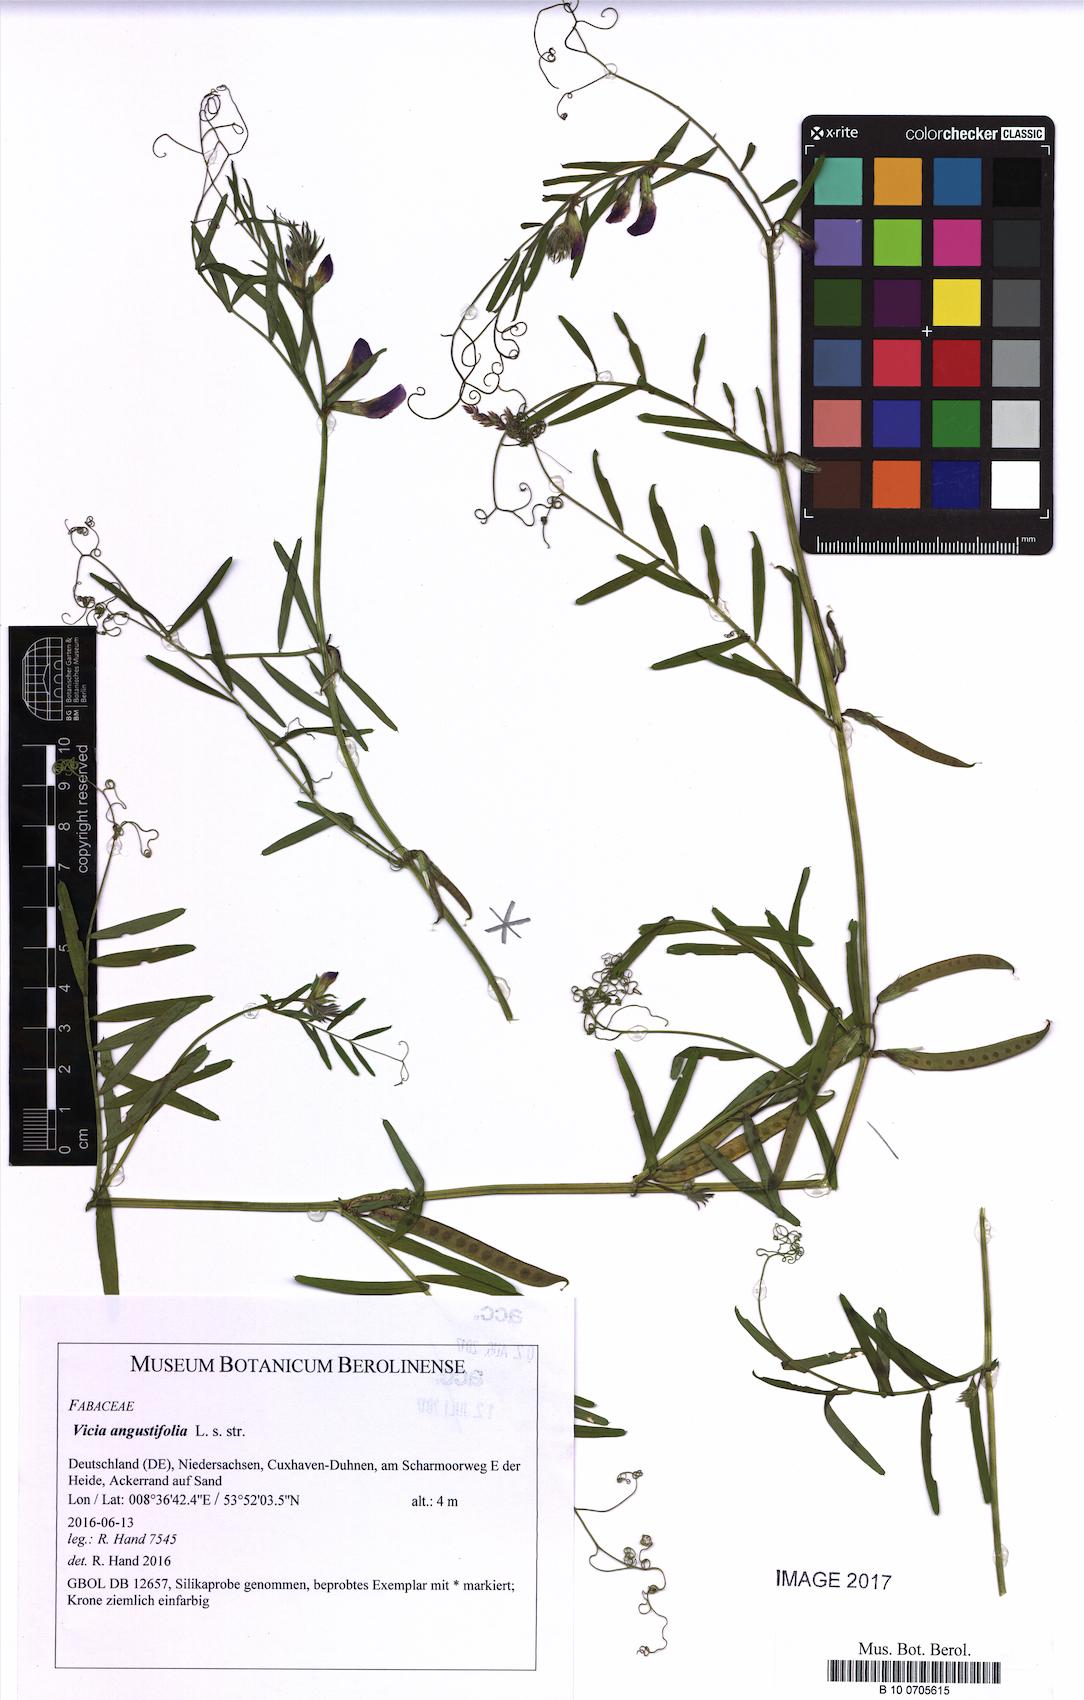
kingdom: Plantae
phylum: Tracheophyta
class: Magnoliopsida
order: Fabales
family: Fabaceae
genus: Vicia
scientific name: Vicia sativa
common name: Garden vetch
